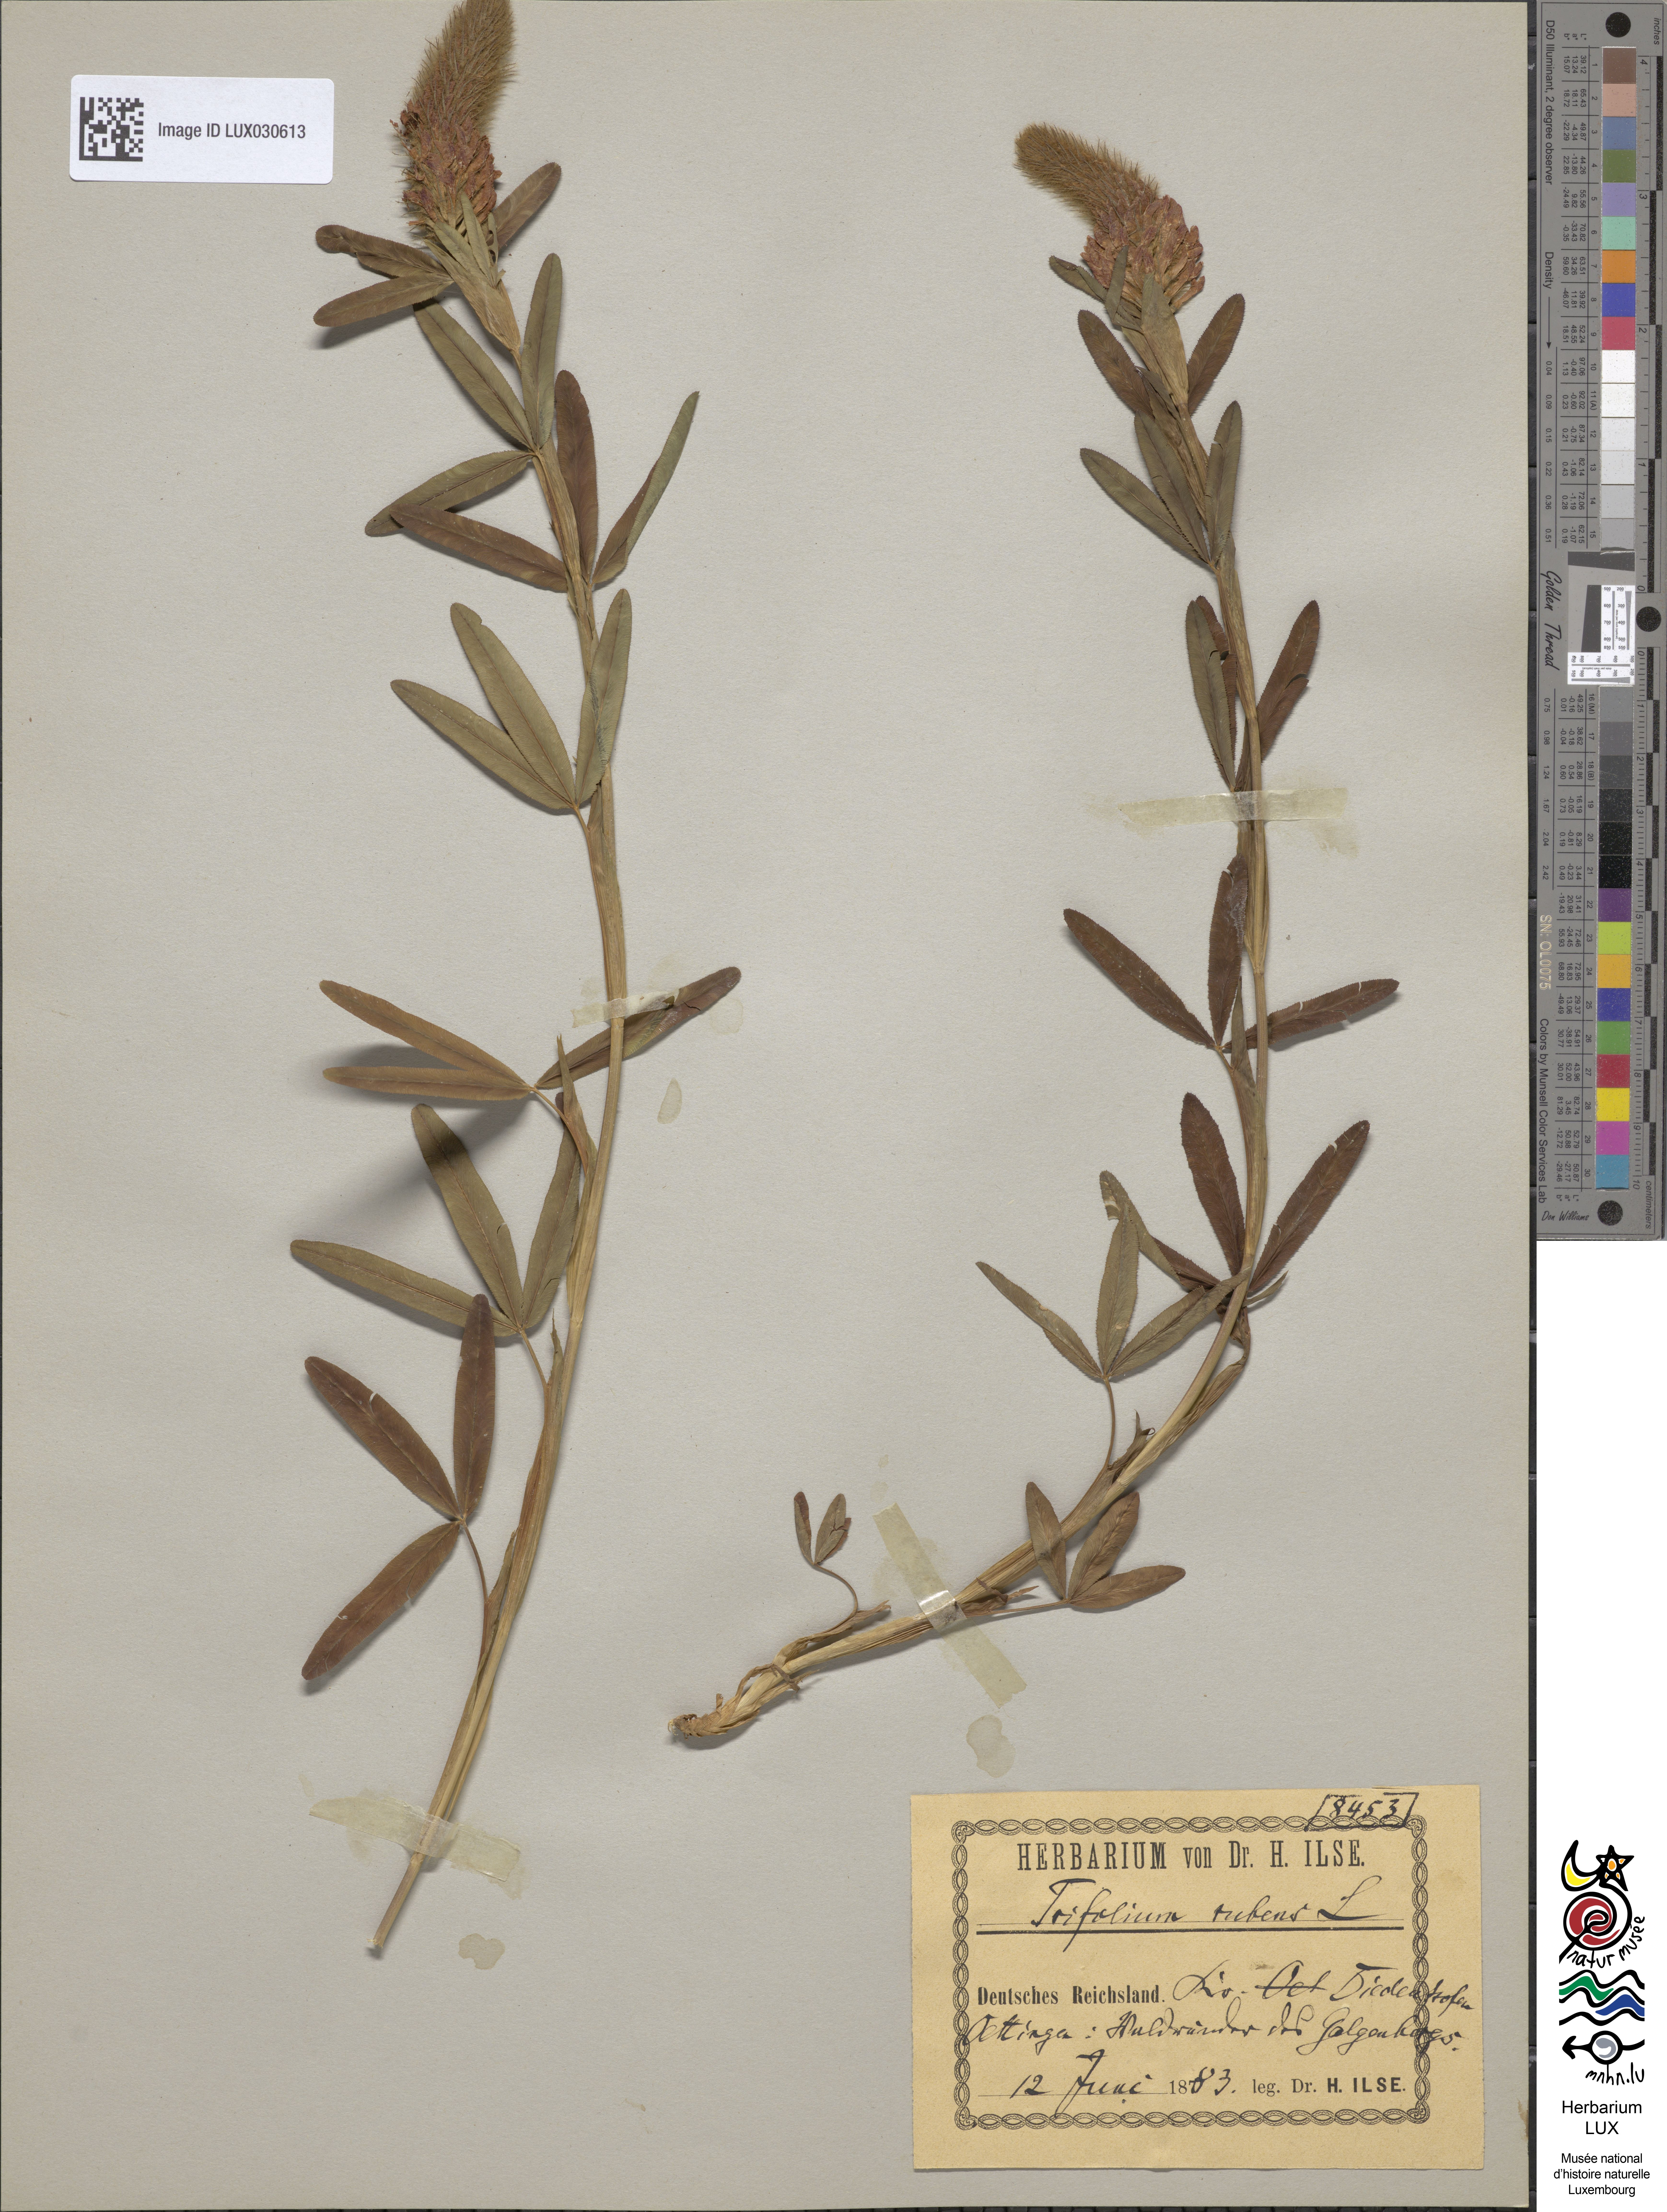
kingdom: Plantae
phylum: Tracheophyta
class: Magnoliopsida
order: Fabales
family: Fabaceae
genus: Trifolium
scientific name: Trifolium rubens
